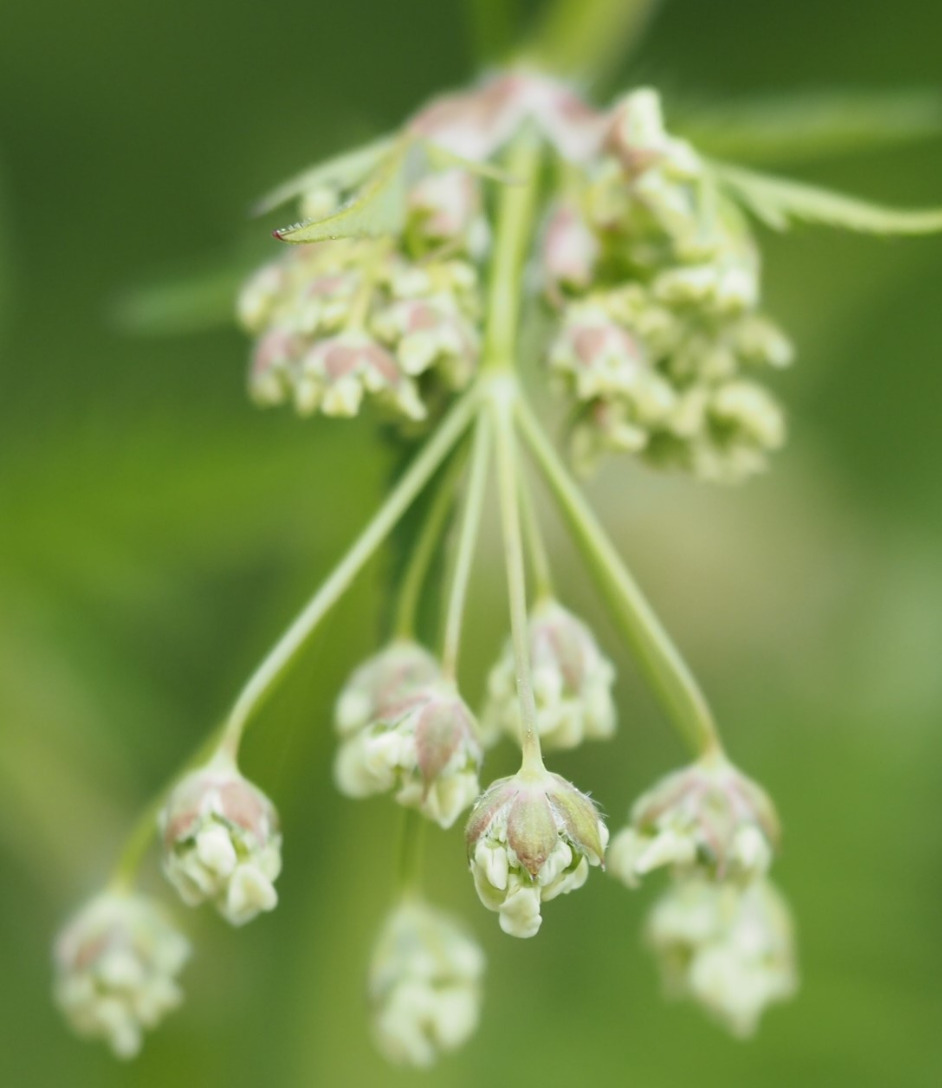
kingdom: Plantae
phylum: Tracheophyta
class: Magnoliopsida
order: Apiales
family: Apiaceae
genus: Anthriscus
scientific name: Anthriscus sylvestris
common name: Vild kørvel
